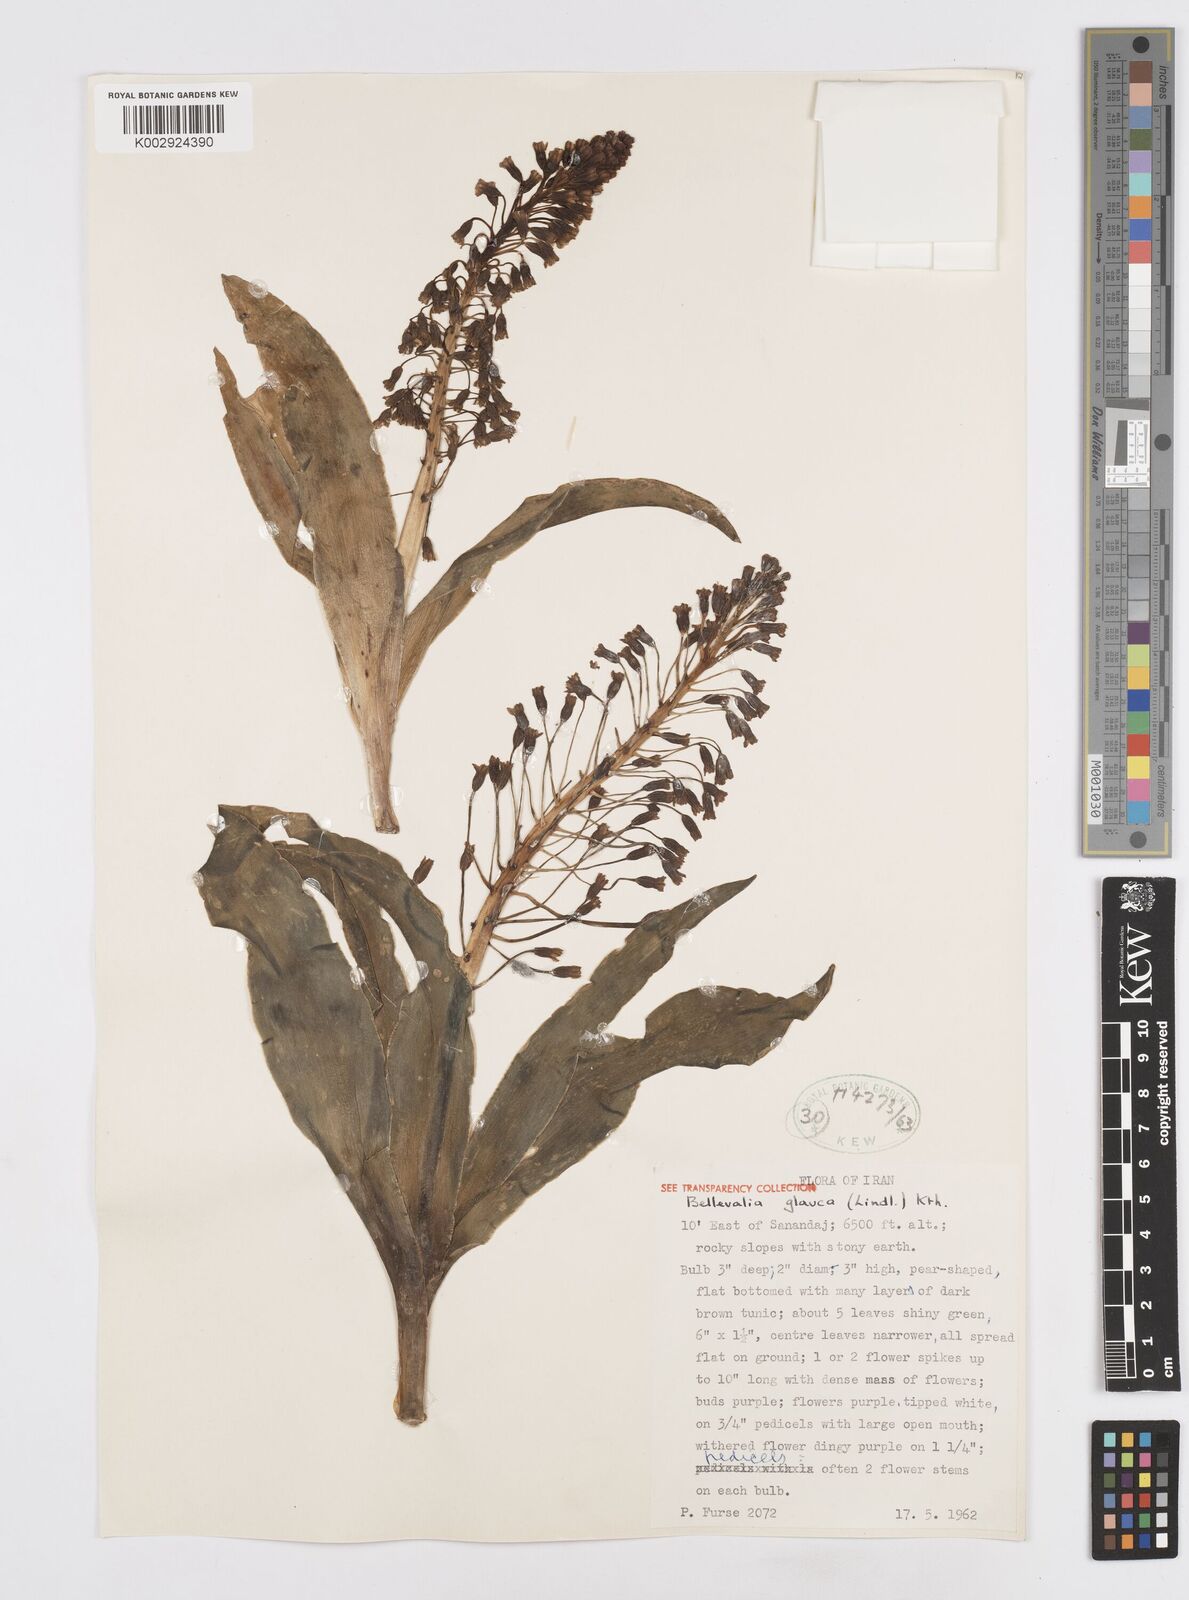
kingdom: Plantae
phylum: Tracheophyta
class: Liliopsida
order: Asparagales
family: Asparagaceae
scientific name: Asparagaceae
